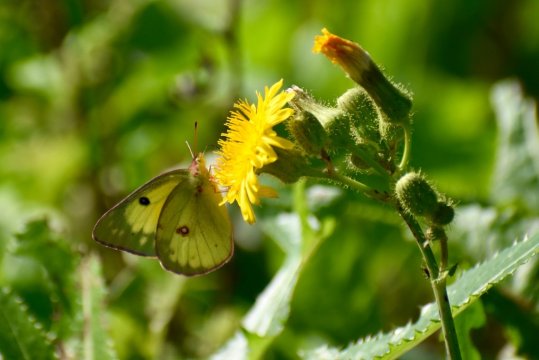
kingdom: Animalia
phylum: Arthropoda
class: Insecta
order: Lepidoptera
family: Pieridae
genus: Colias
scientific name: Colias philodice
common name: Clouded Sulphur
